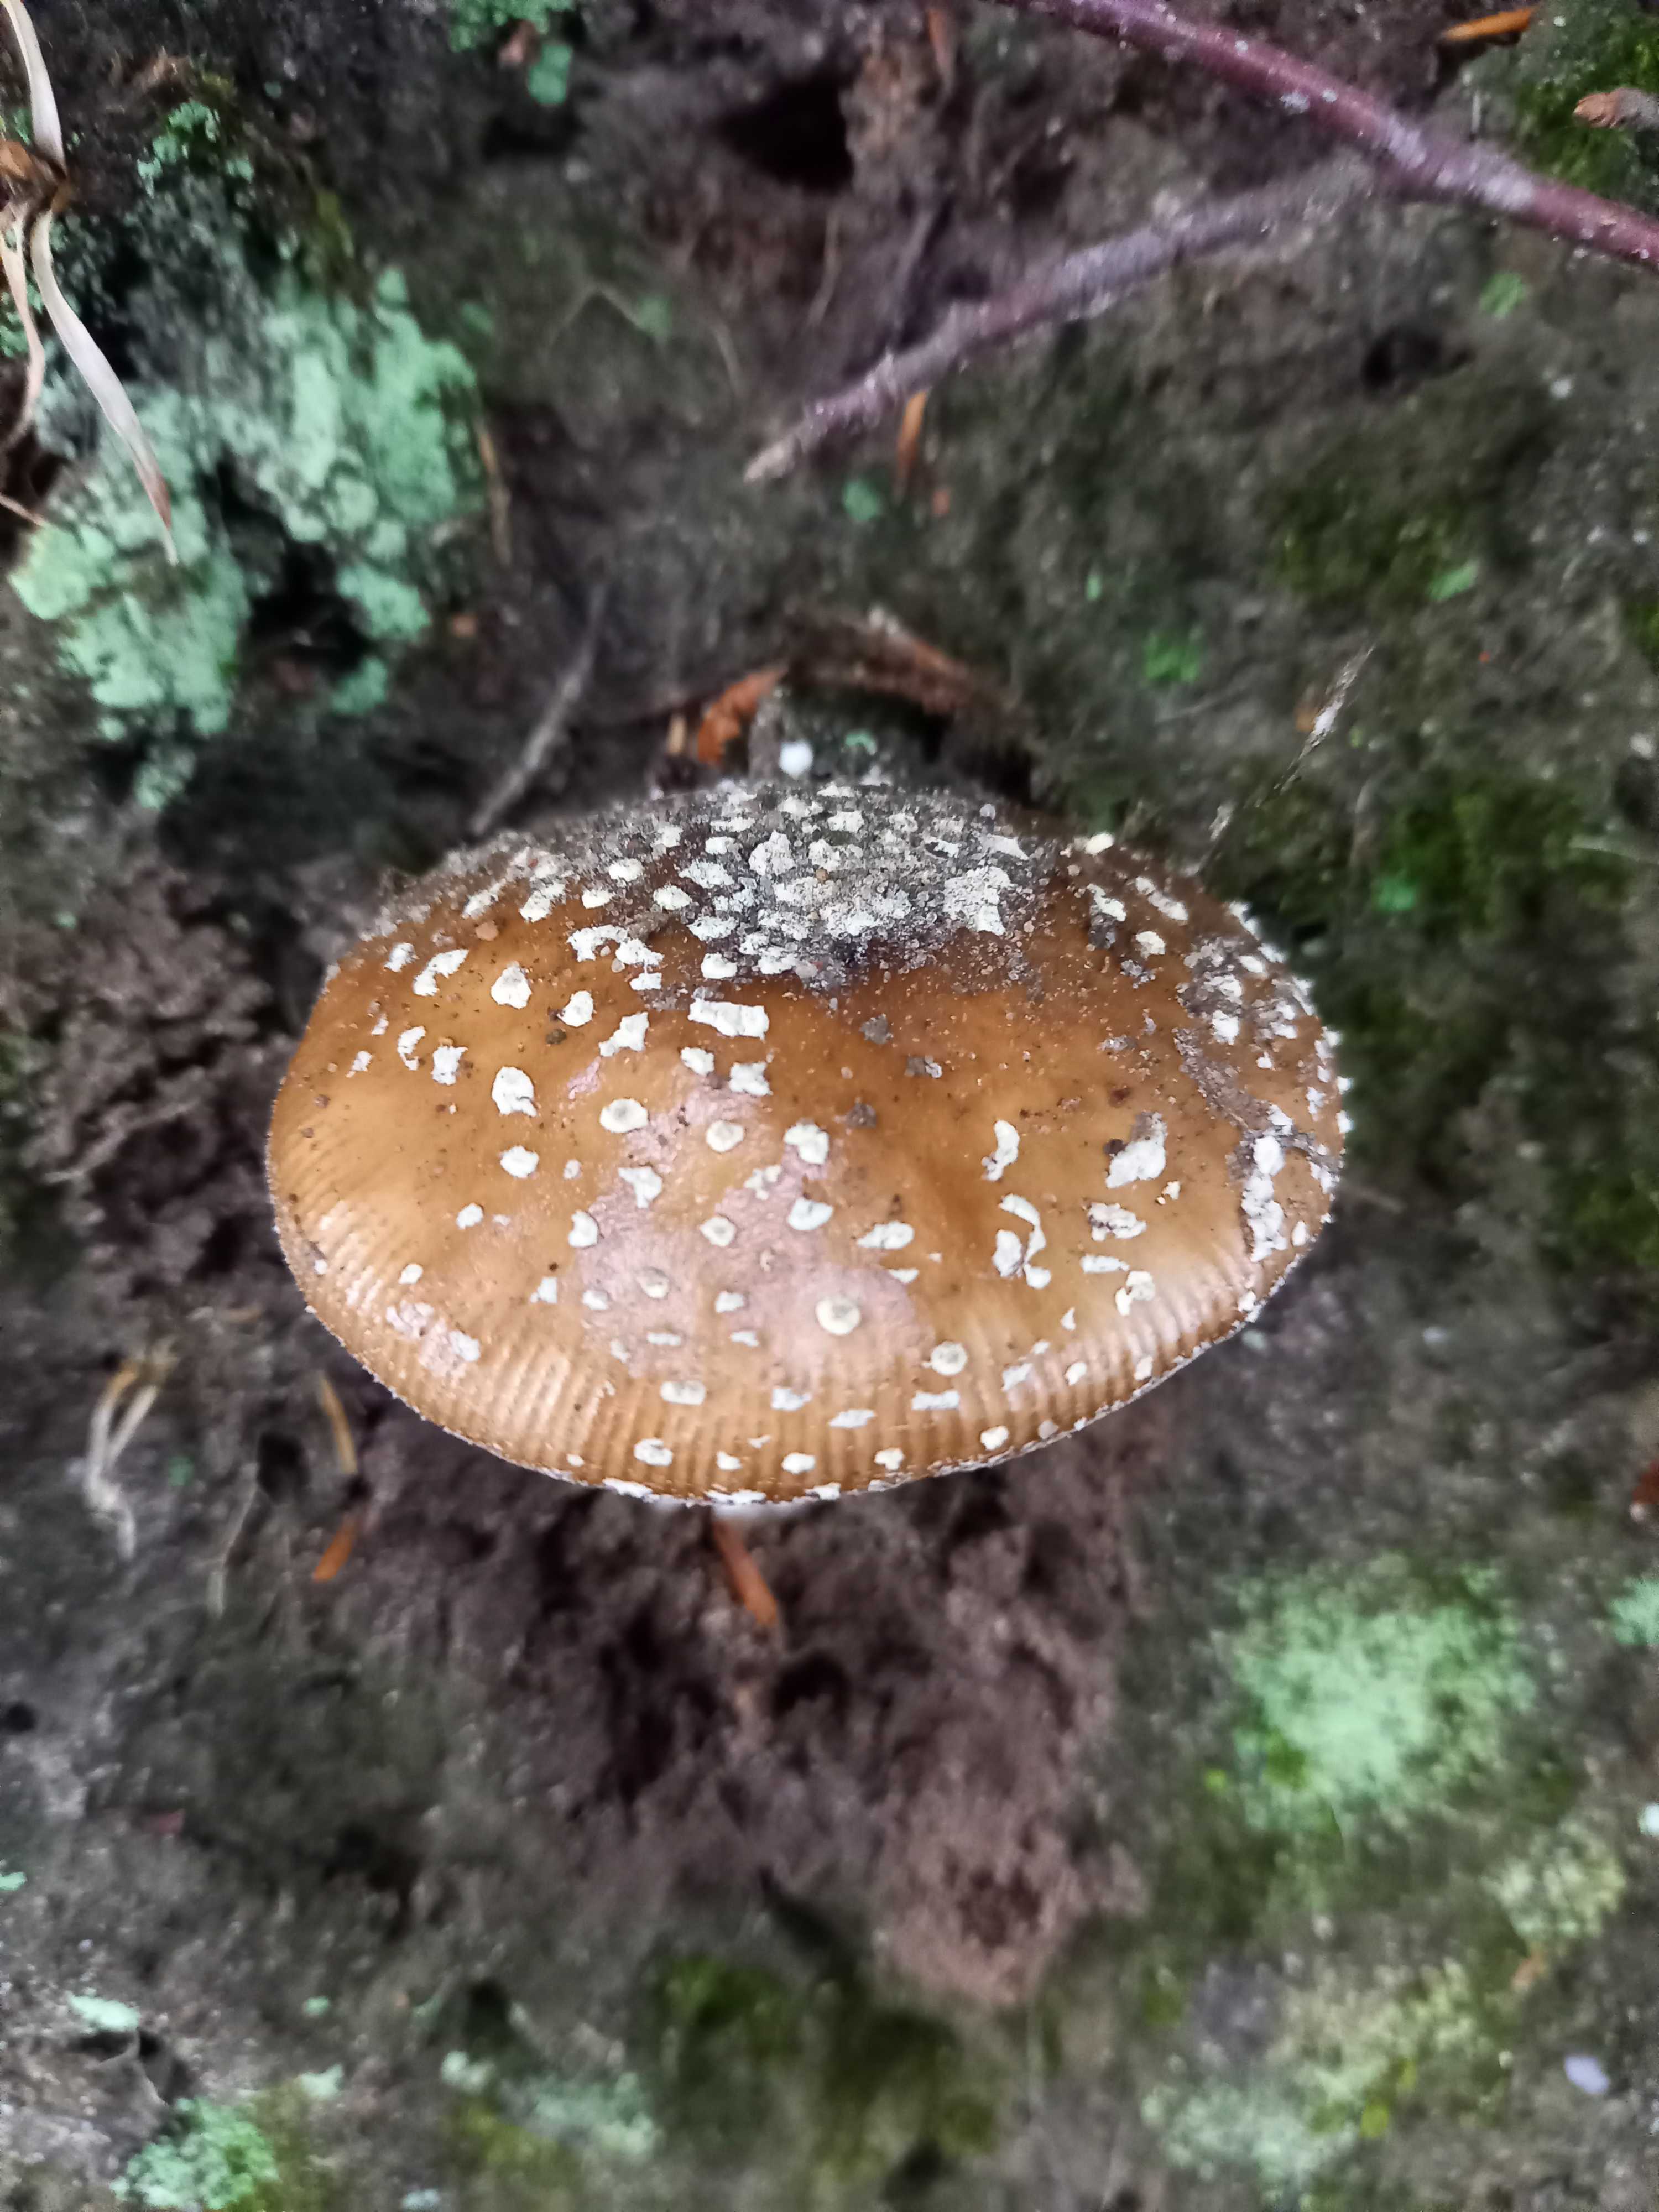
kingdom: Fungi
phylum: Basidiomycota
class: Agaricomycetes
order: Agaricales
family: Amanitaceae
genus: Amanita
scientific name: Amanita pantherina
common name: panter-fluesvamp
